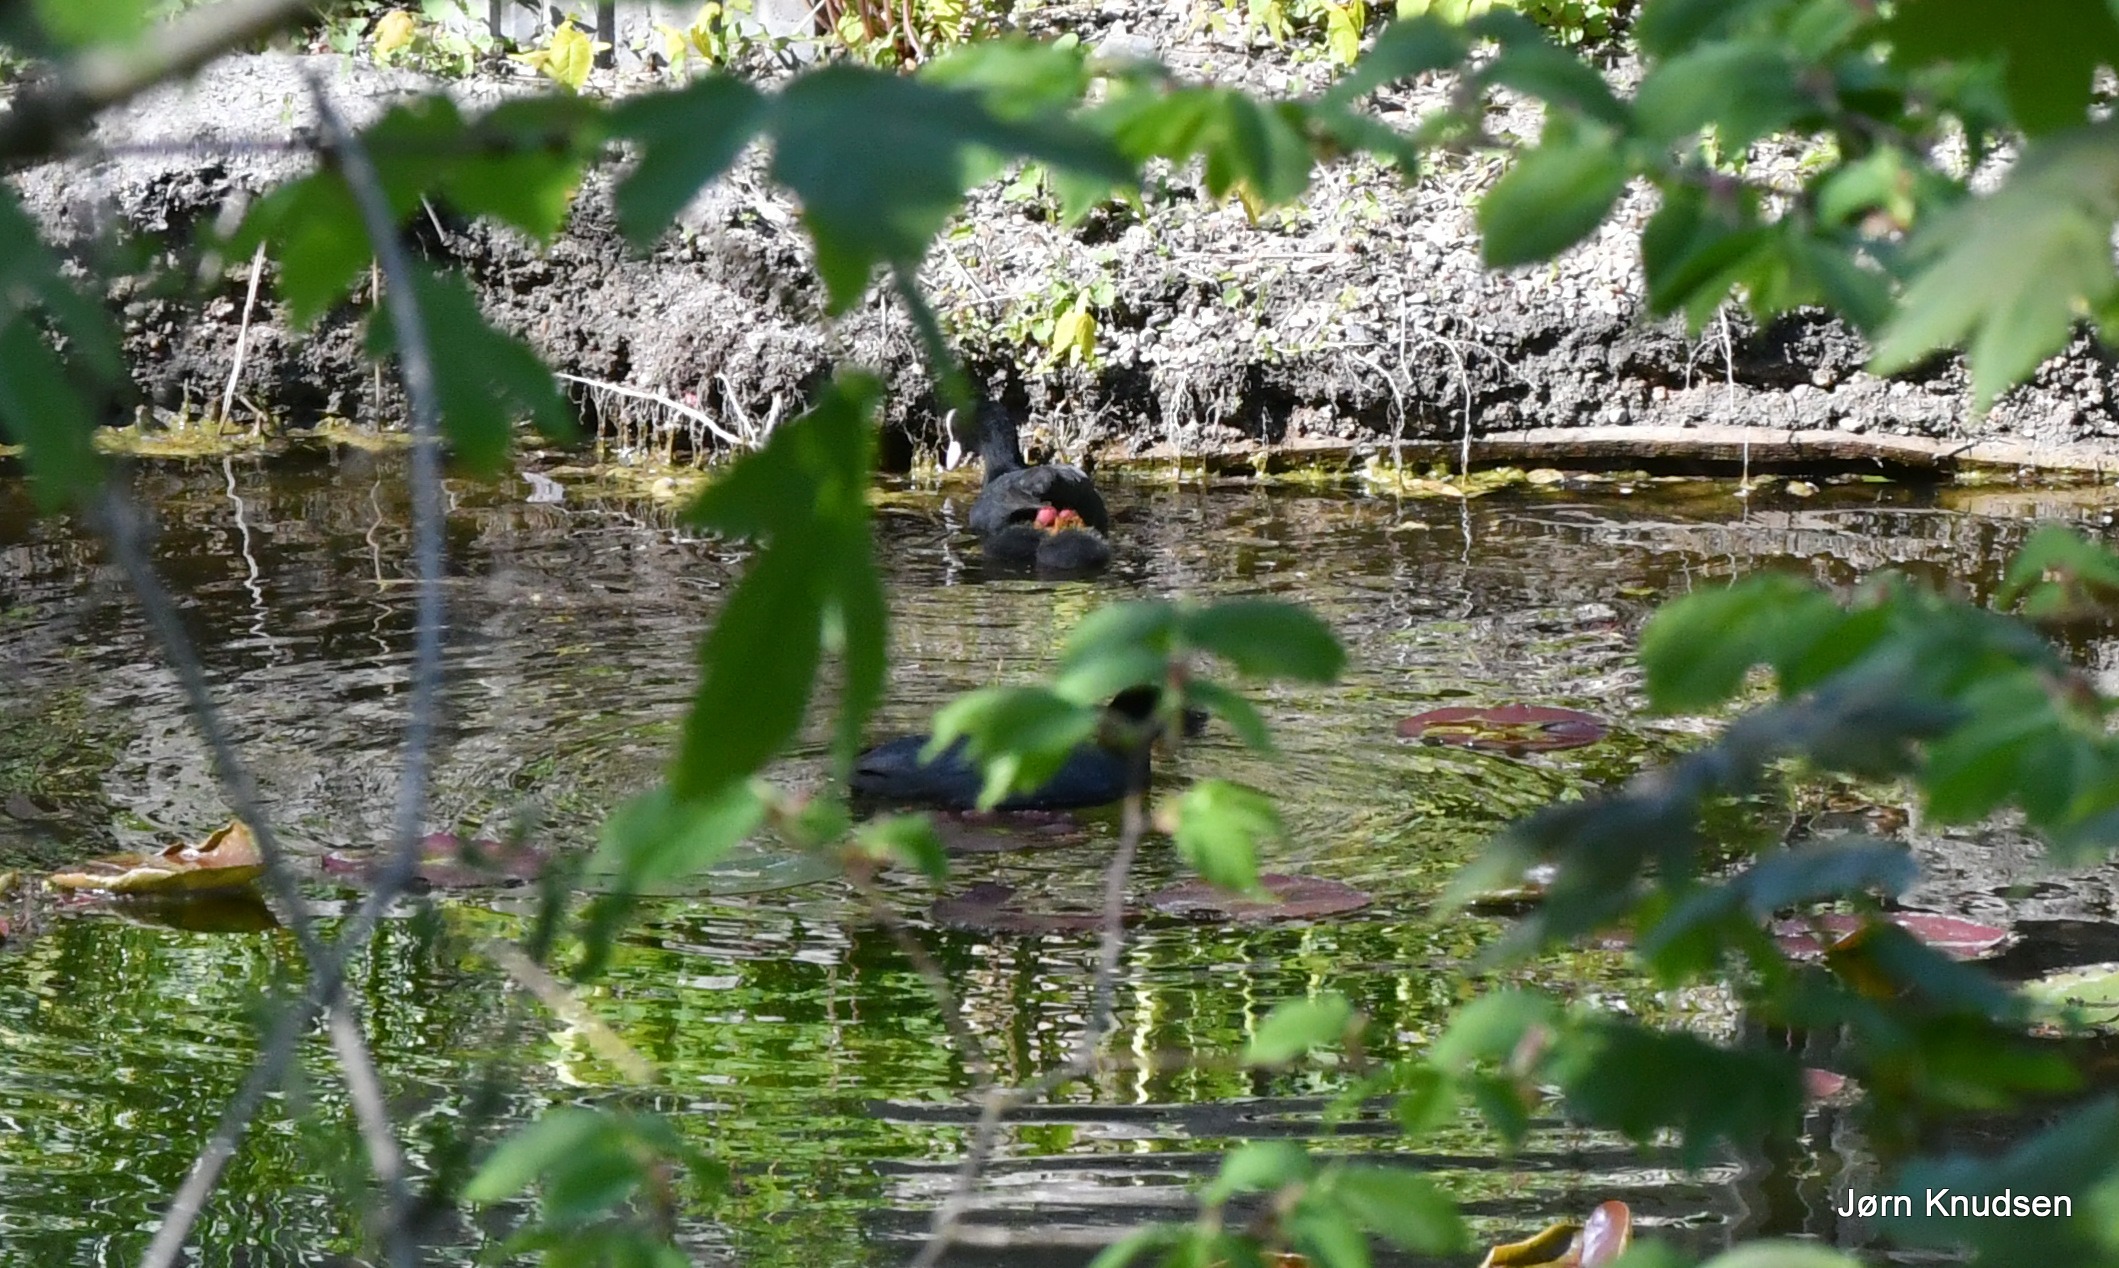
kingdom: Animalia
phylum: Chordata
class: Aves
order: Gruiformes
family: Rallidae
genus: Fulica
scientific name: Fulica atra
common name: Blishøne
